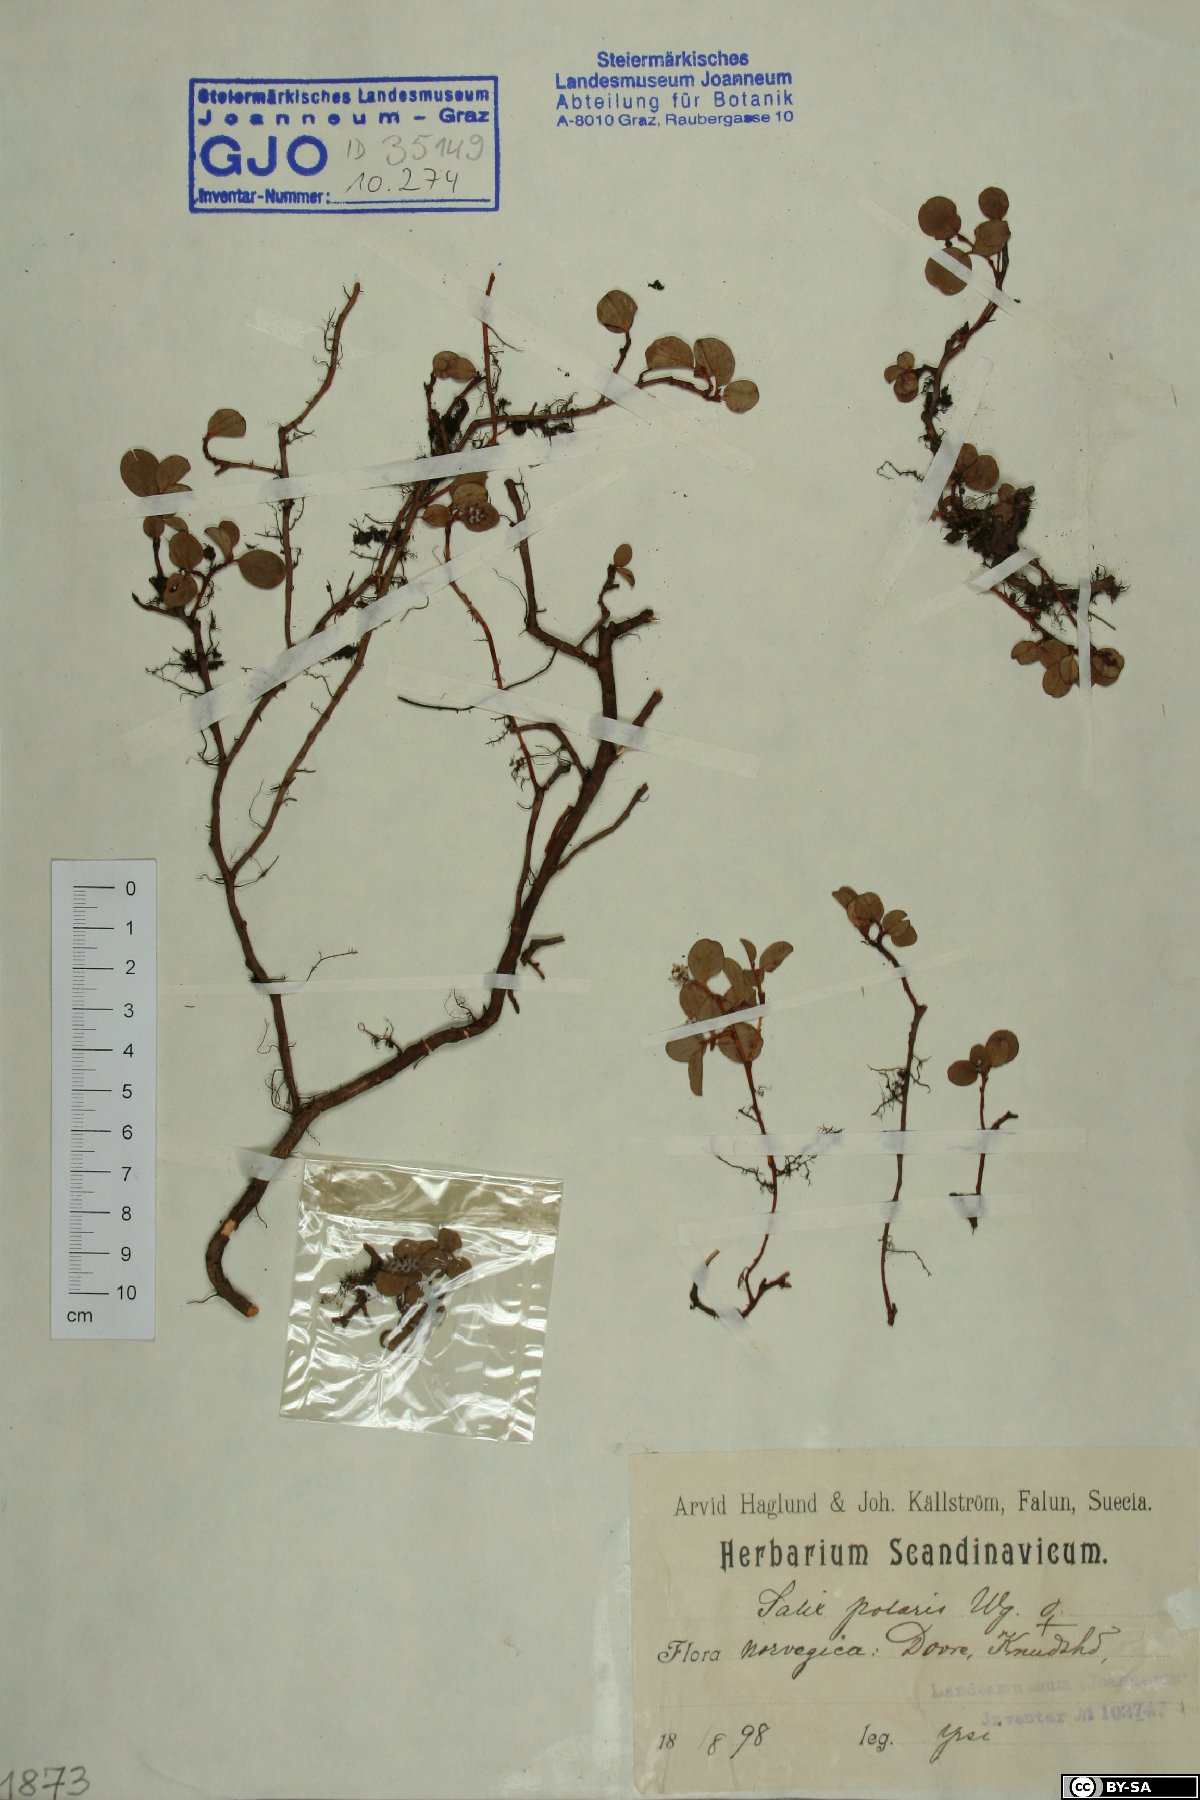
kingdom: Plantae
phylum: Tracheophyta
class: Magnoliopsida
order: Malpighiales
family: Salicaceae
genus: Salix
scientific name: Salix polaris
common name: Polar willow
